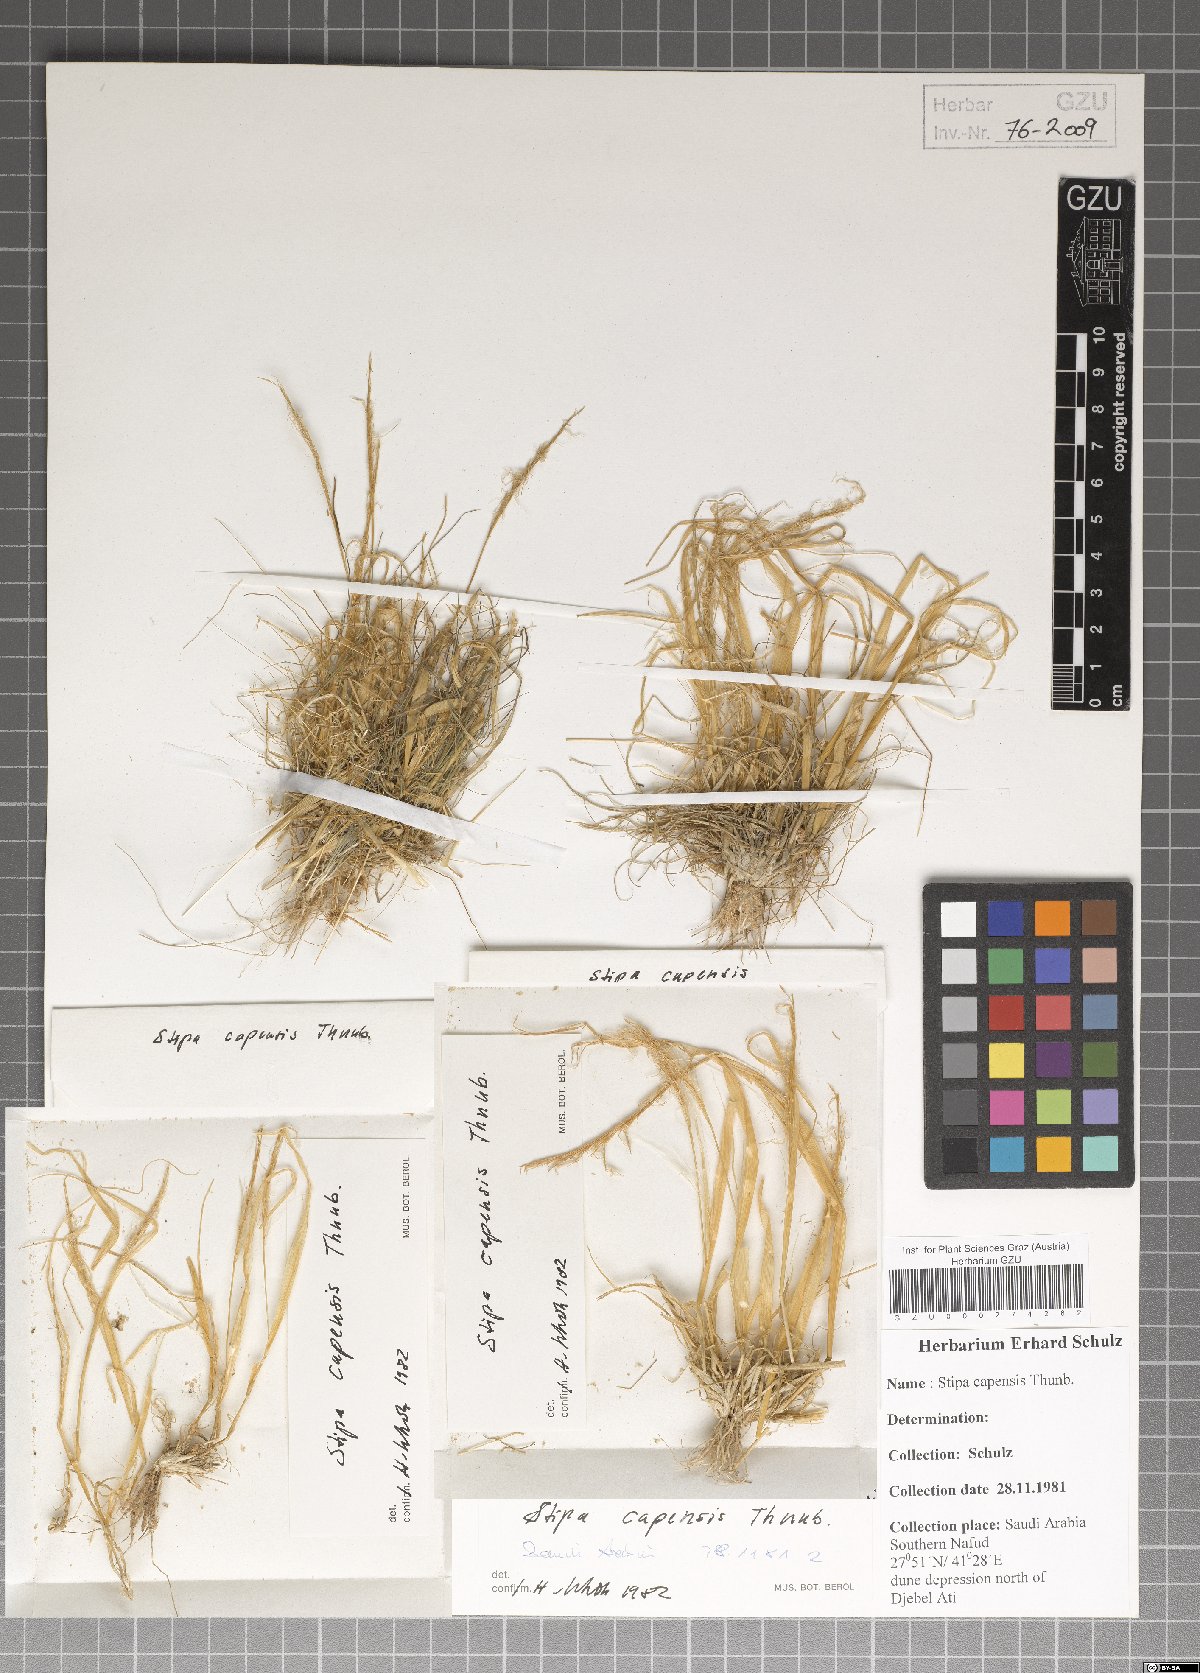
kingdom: Plantae
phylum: Tracheophyta
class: Liliopsida
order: Poales
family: Poaceae
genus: Stipellula
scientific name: Stipellula capensis
